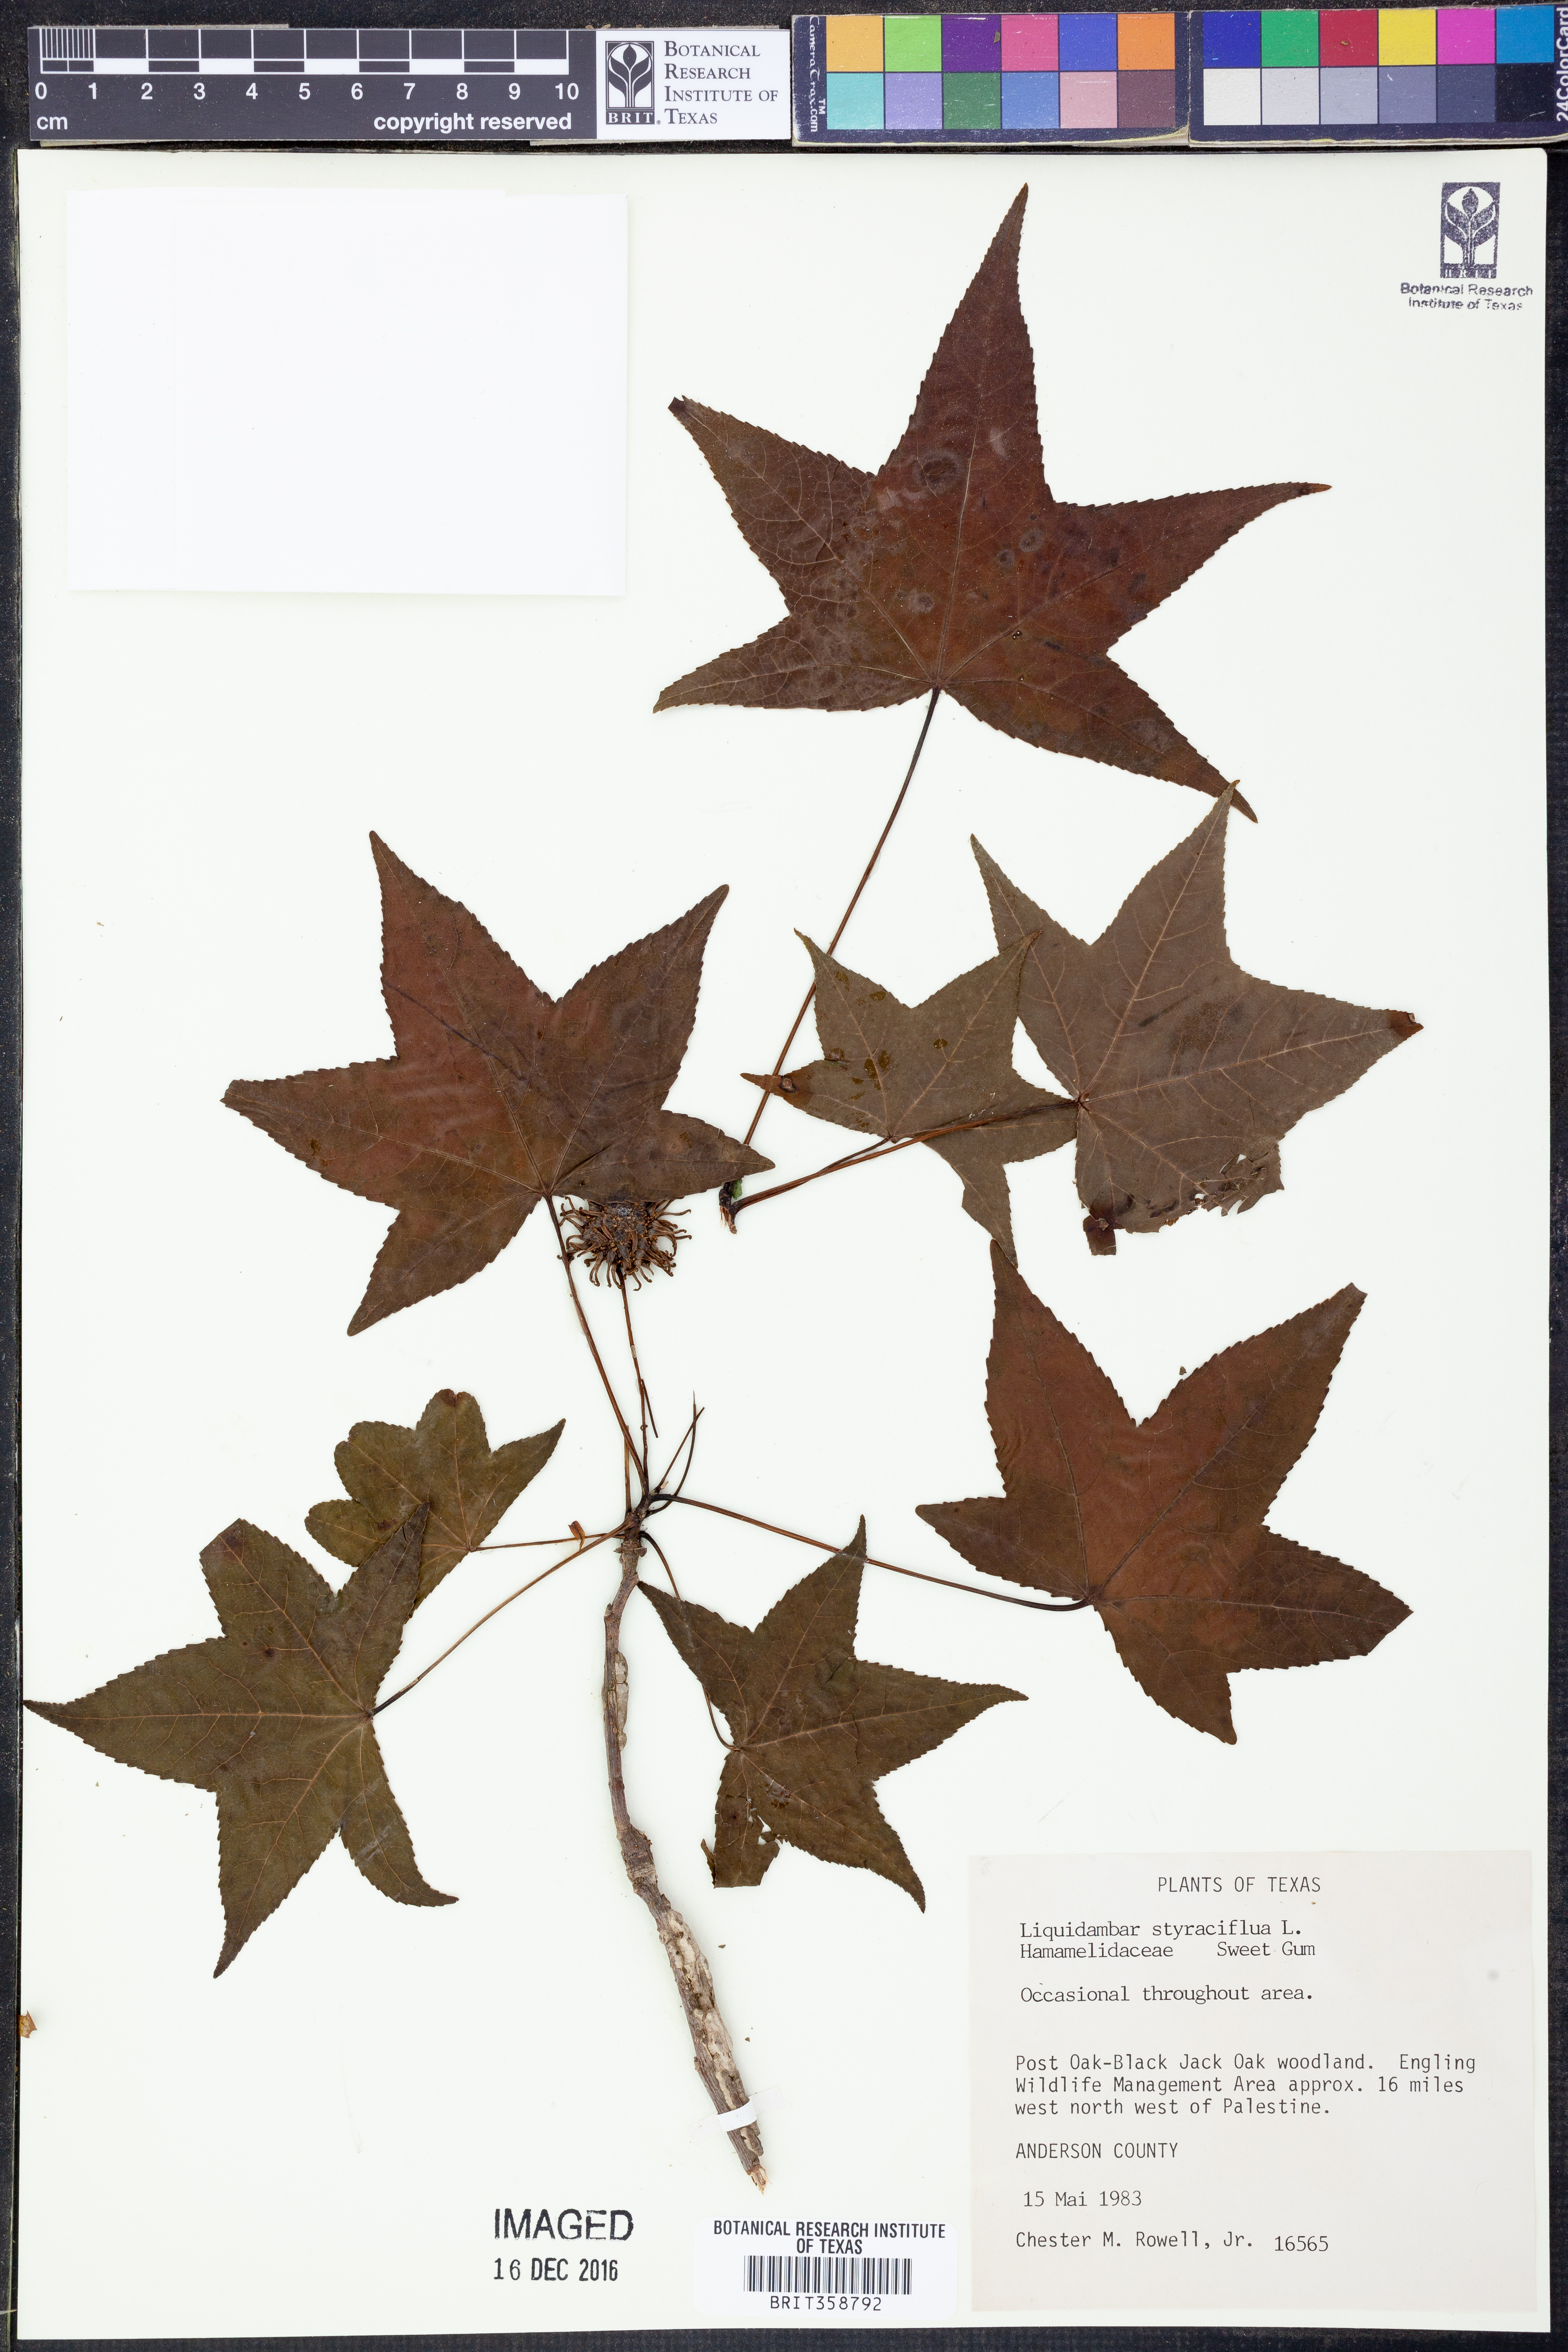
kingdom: Plantae
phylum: Tracheophyta
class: Magnoliopsida
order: Saxifragales
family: Altingiaceae
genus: Liquidambar
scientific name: Liquidambar styraciflua
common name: Sweet gum
